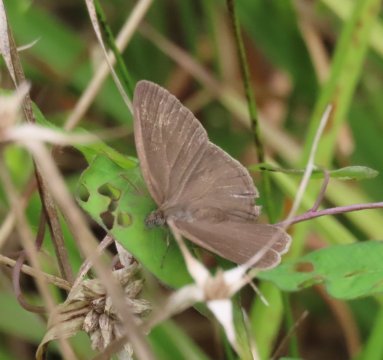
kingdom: Animalia
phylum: Arthropoda
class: Insecta
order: Lepidoptera
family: Nymphalidae
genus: Hermeuptychia
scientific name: Hermeuptychia hermes
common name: Carolina Satyr
